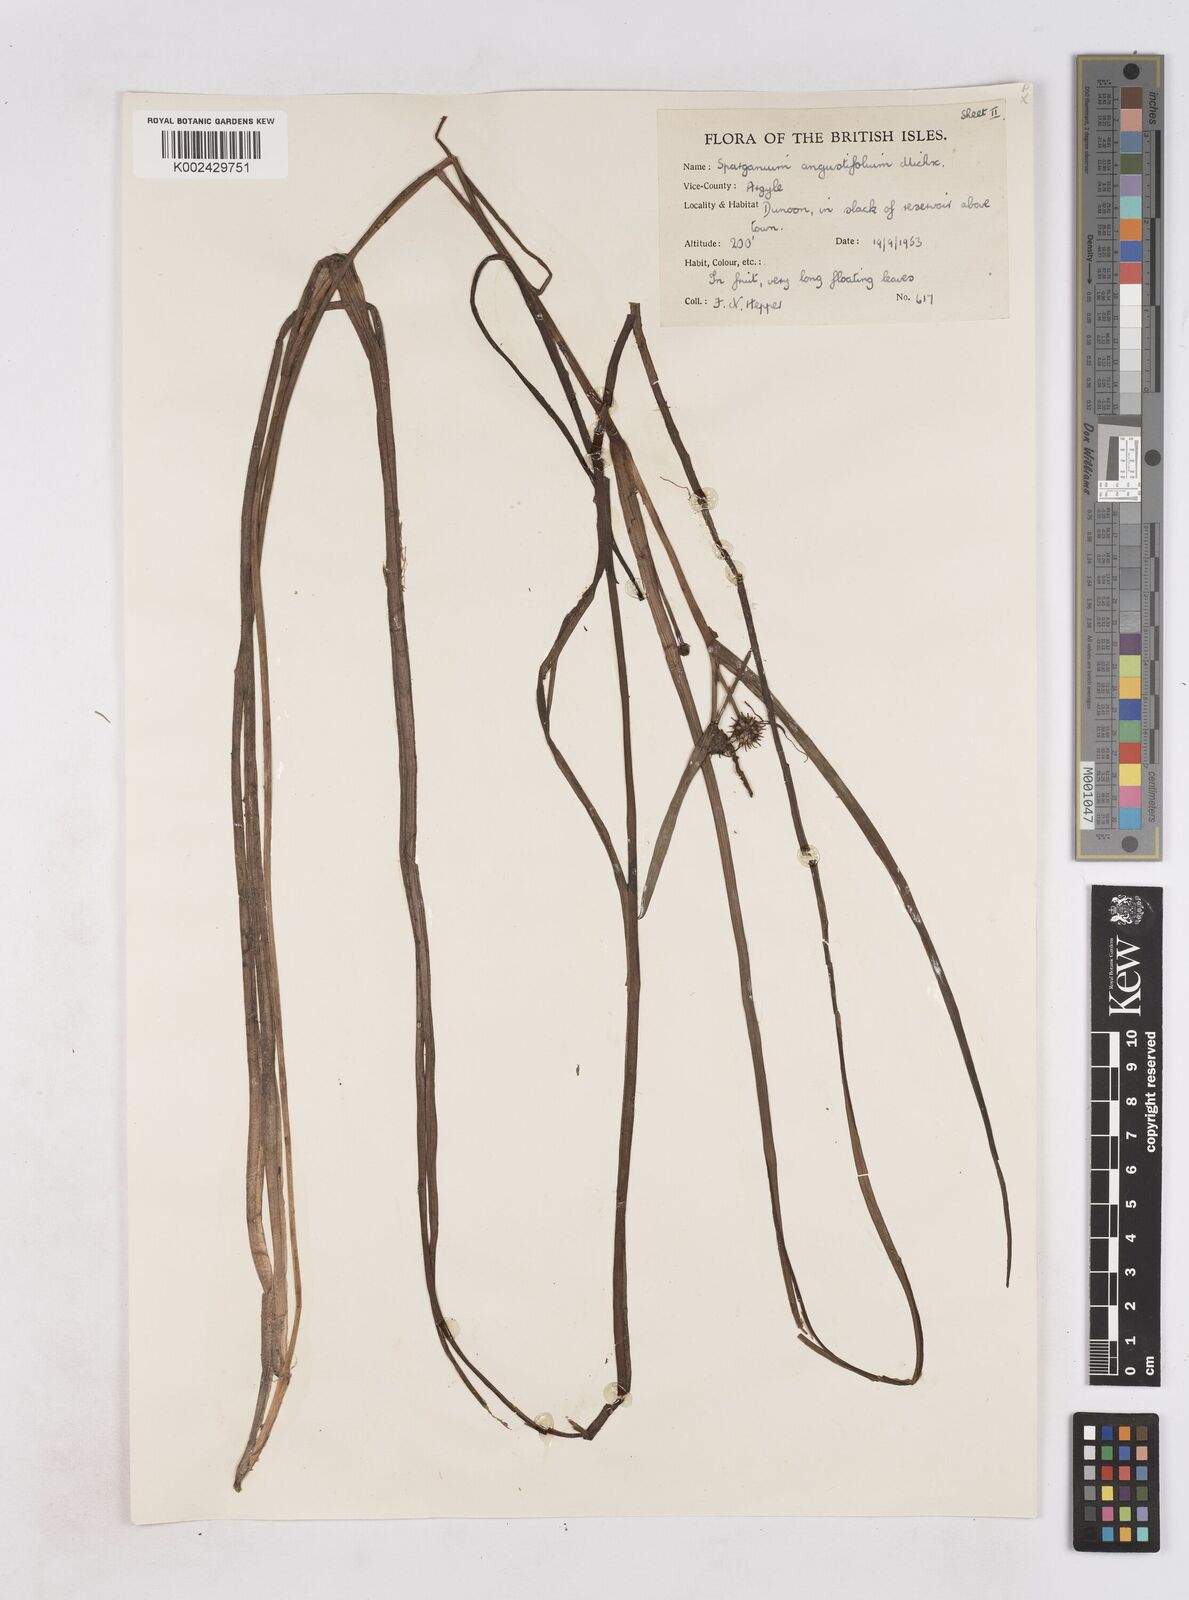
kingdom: Plantae
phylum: Tracheophyta
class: Liliopsida
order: Poales
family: Typhaceae
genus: Sparganium
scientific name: Sparganium angustifolium
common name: Floating bur-reed
